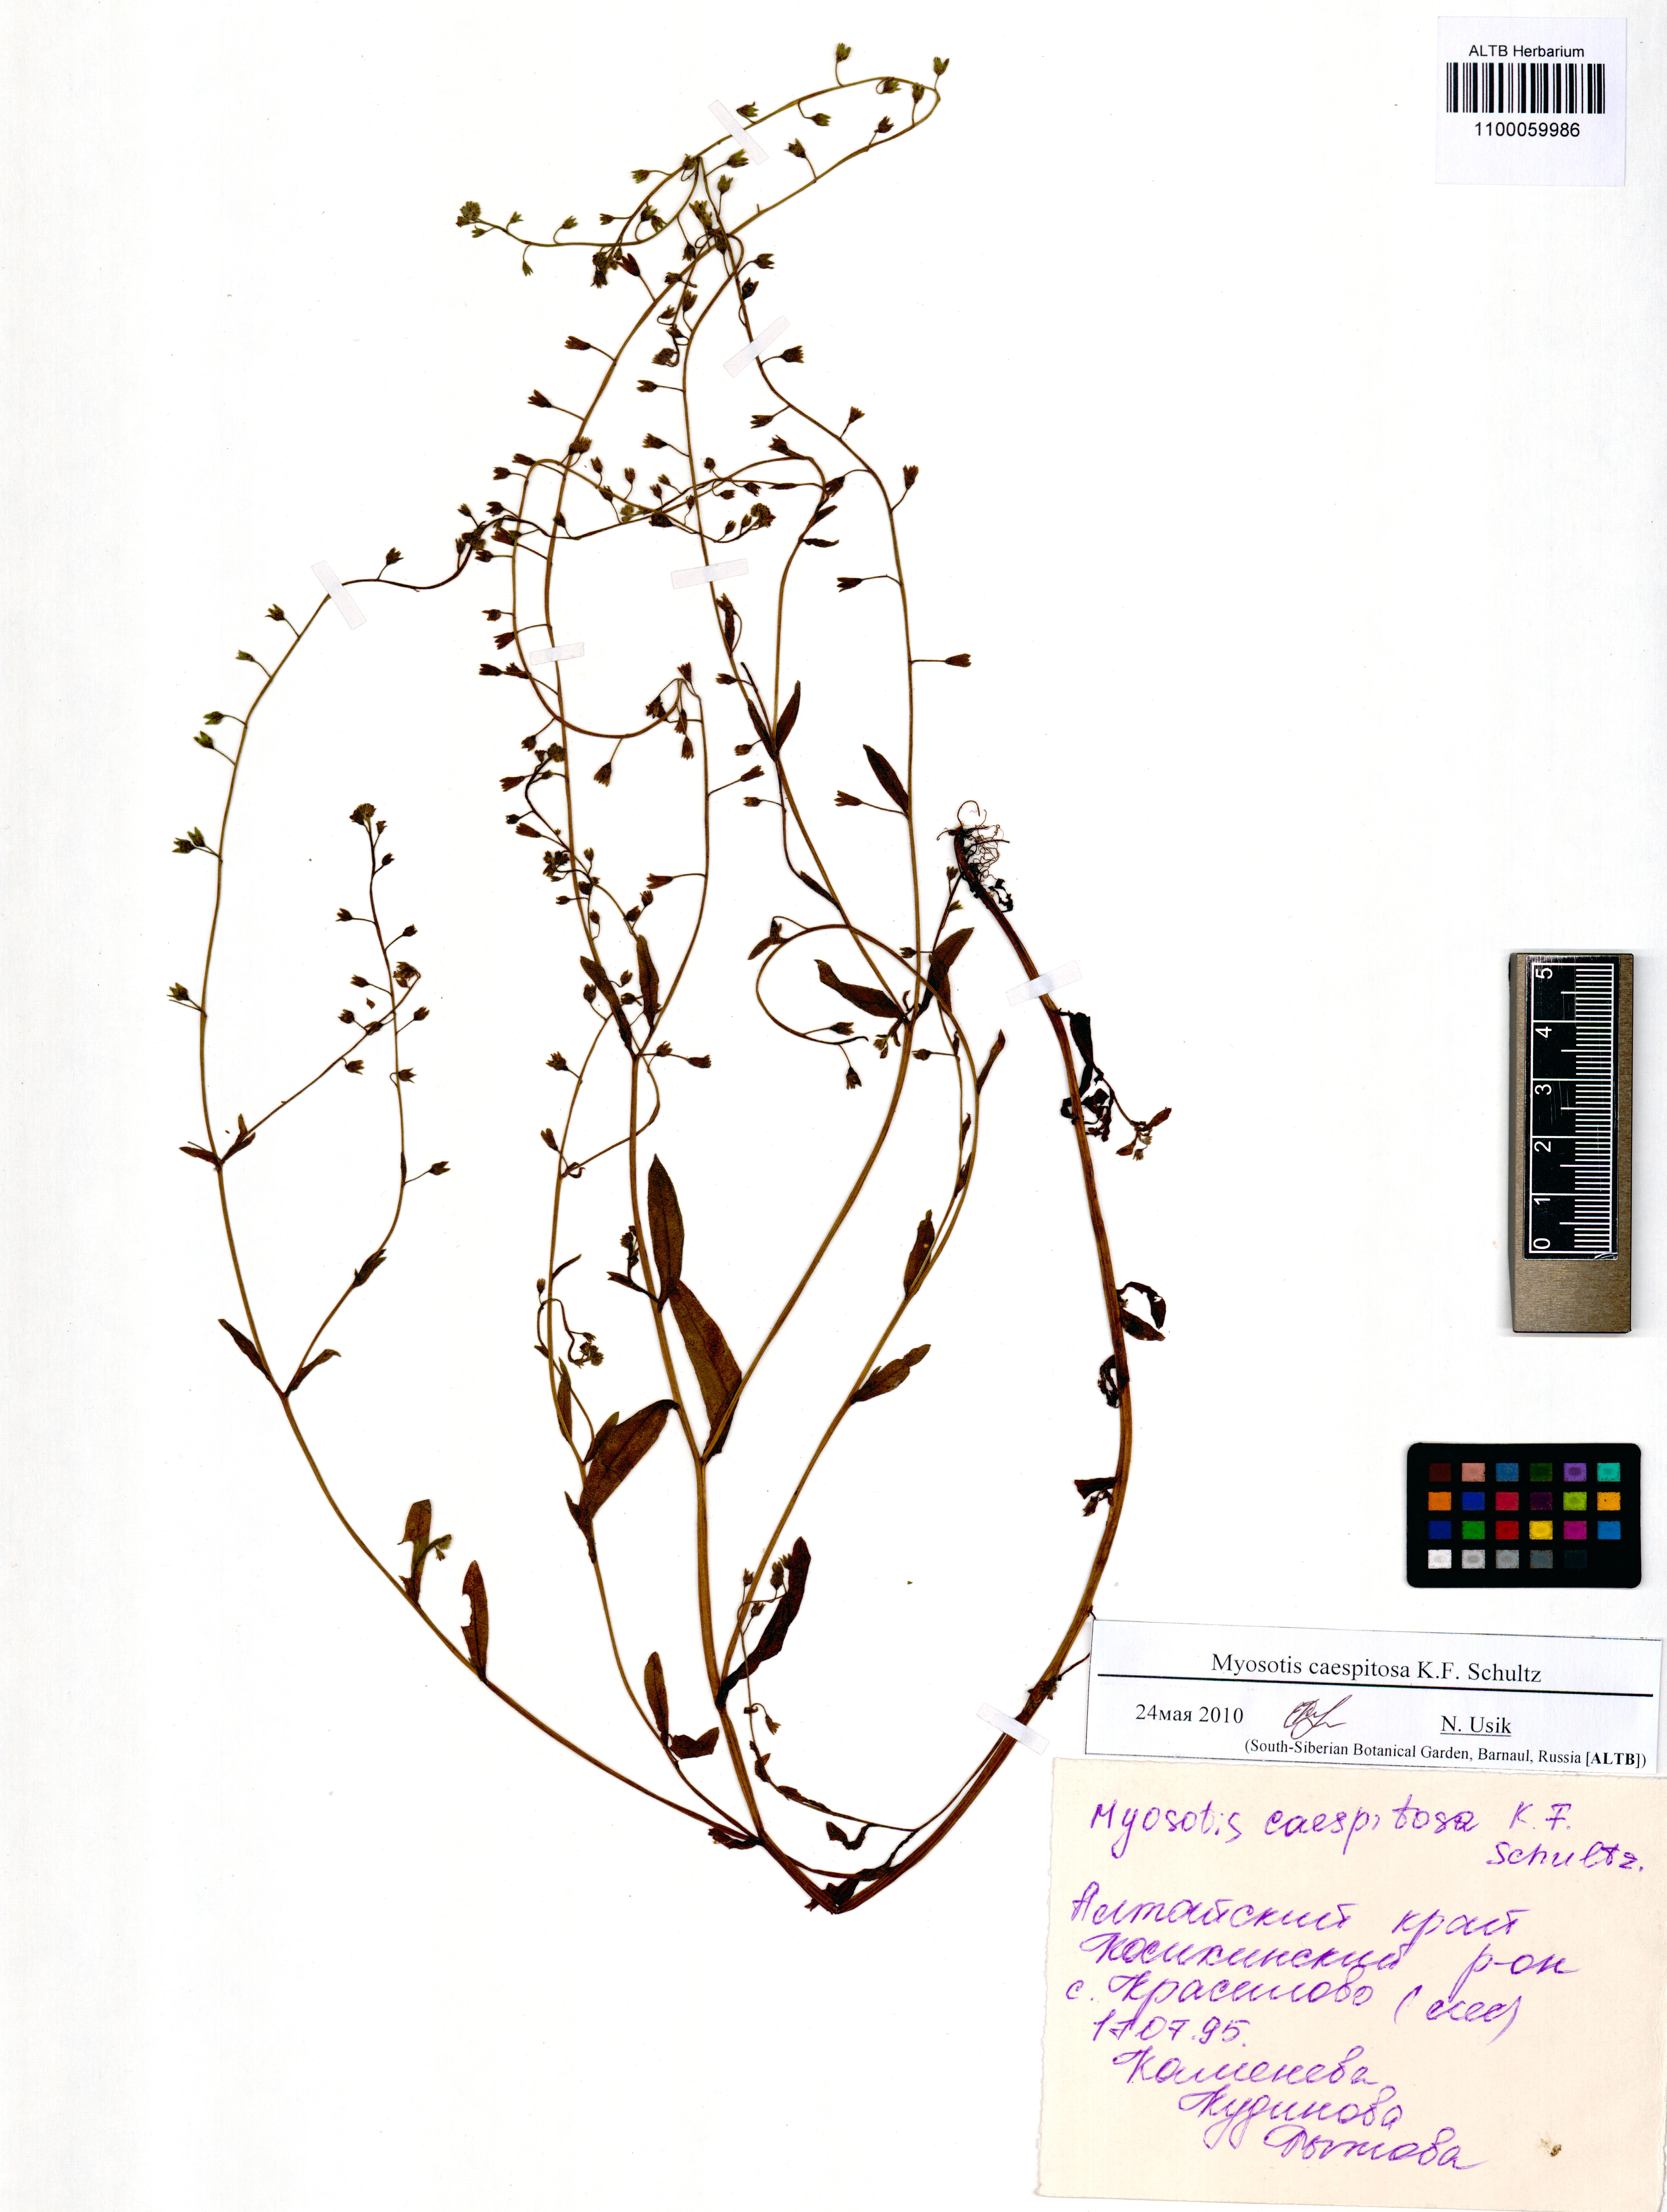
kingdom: Plantae
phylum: Tracheophyta
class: Magnoliopsida
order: Boraginales
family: Boraginaceae
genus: Myosotis
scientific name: Myosotis laxa
